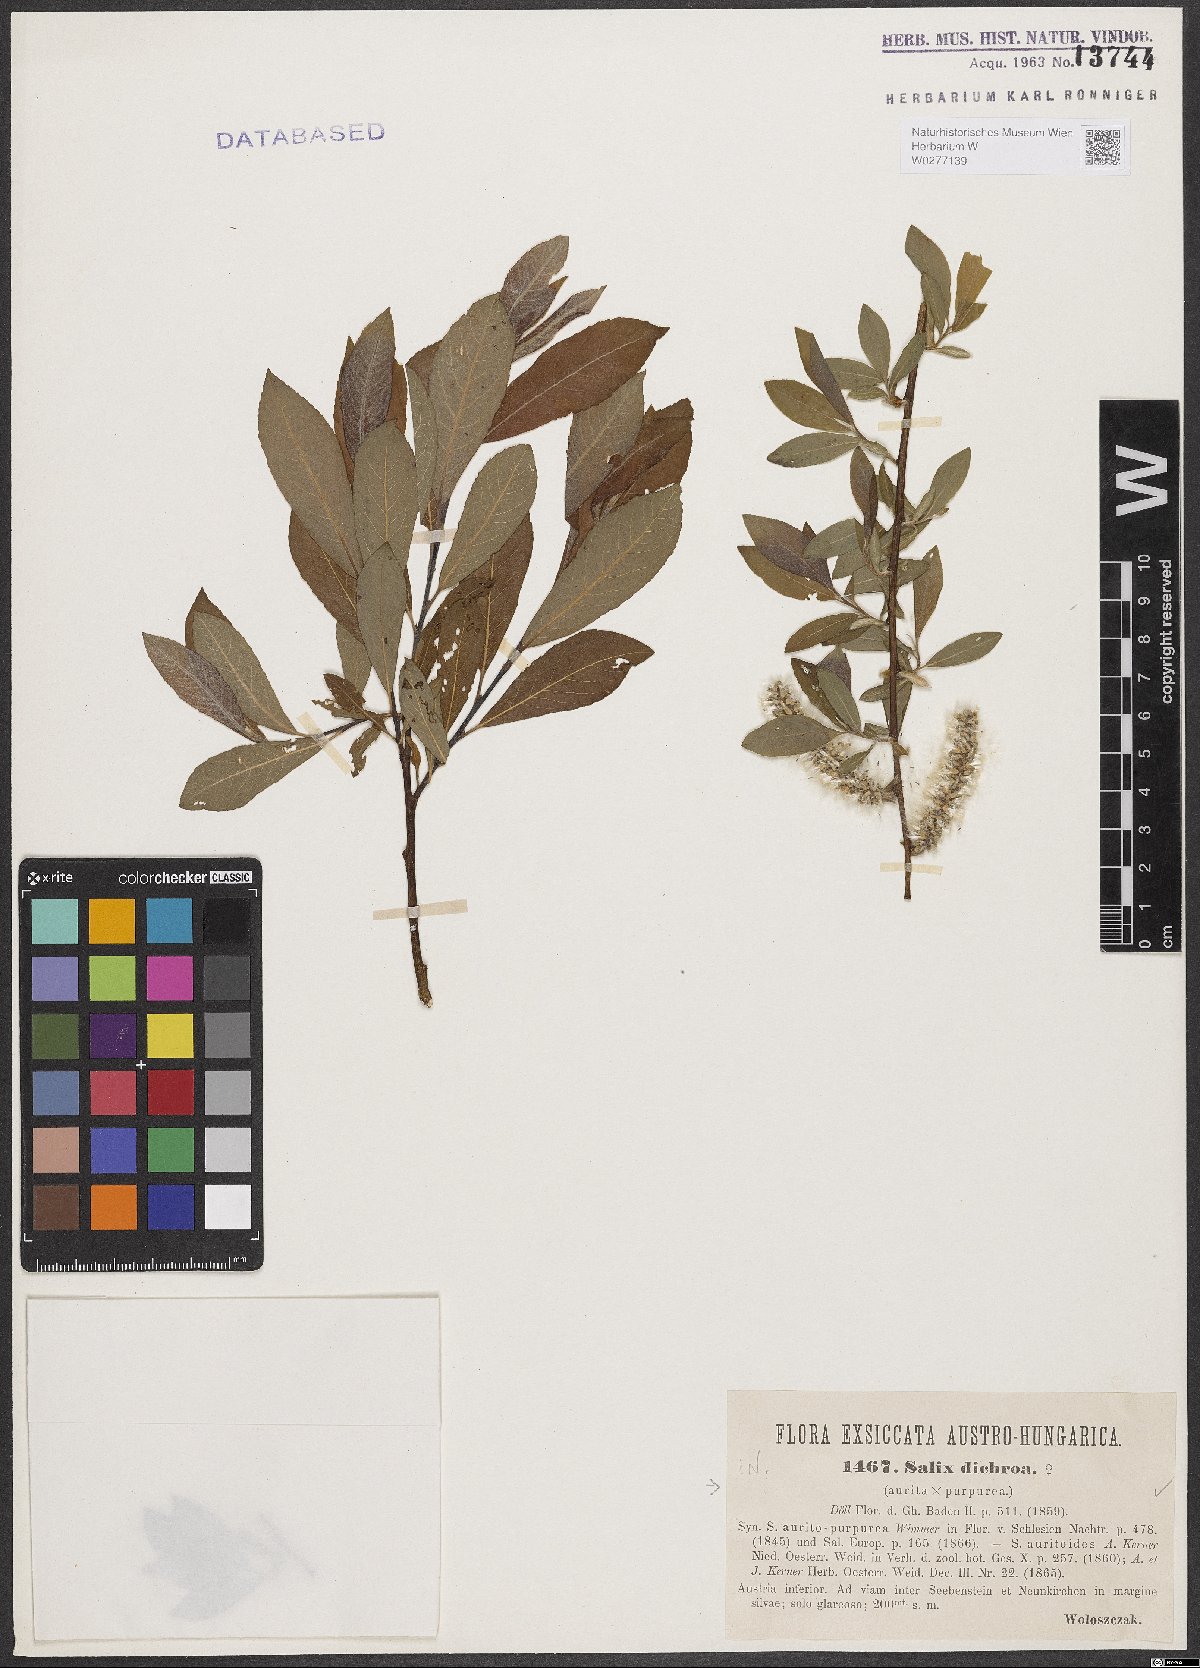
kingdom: Plantae
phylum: Tracheophyta
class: Magnoliopsida
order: Malpighiales
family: Salicaceae
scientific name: Salicaceae
